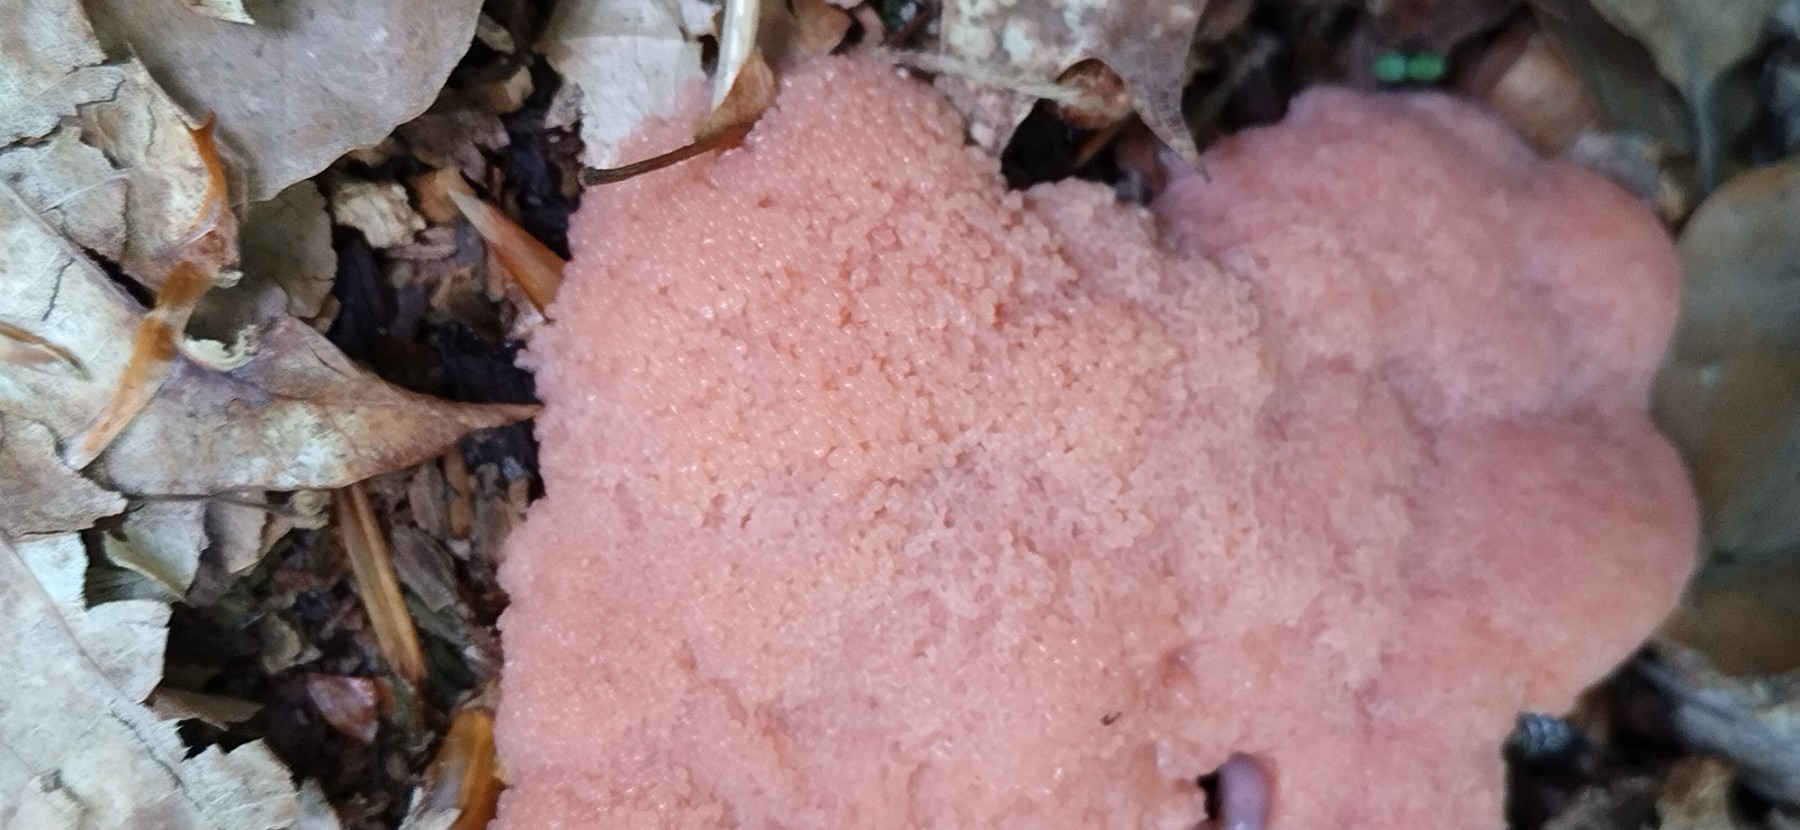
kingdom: Protozoa
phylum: Mycetozoa
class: Myxomycetes
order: Cribrariales
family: Tubiferaceae
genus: Tubifera
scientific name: Tubifera ferruginosa
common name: kanel-støvrør
